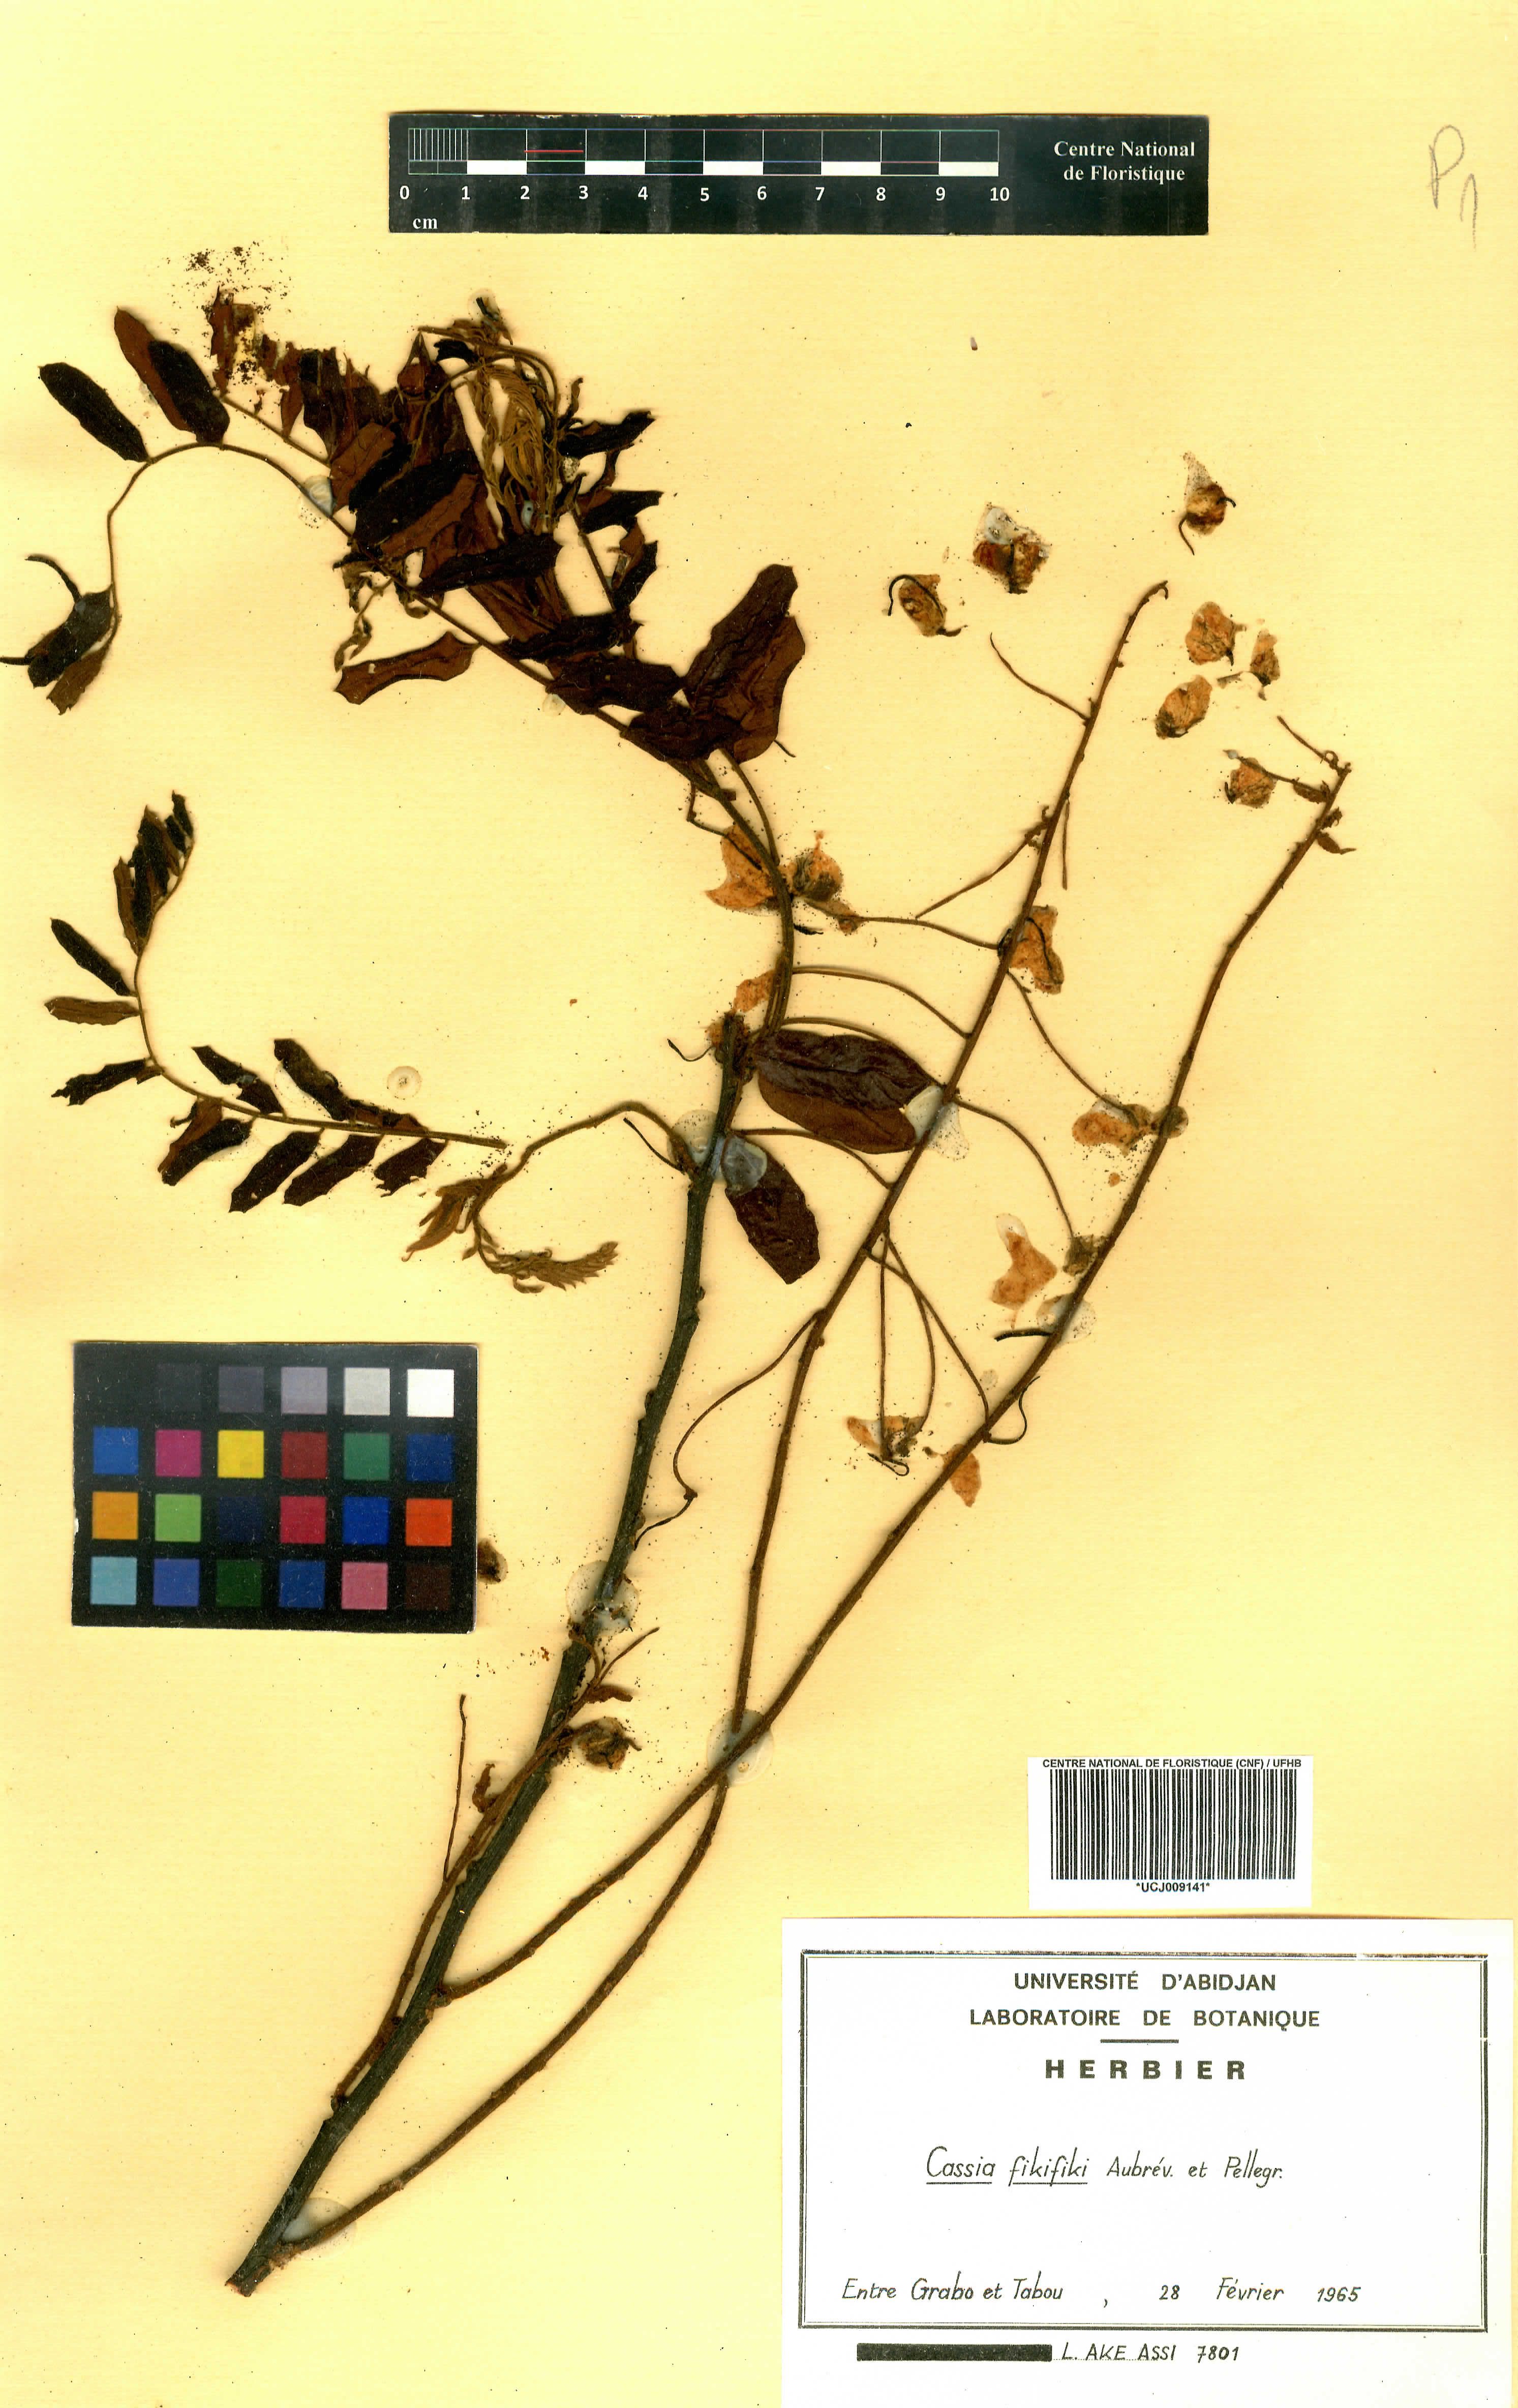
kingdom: Plantae
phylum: Tracheophyta
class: Magnoliopsida
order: Fabales
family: Fabaceae
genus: Cassia
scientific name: Cassia fikifiki
